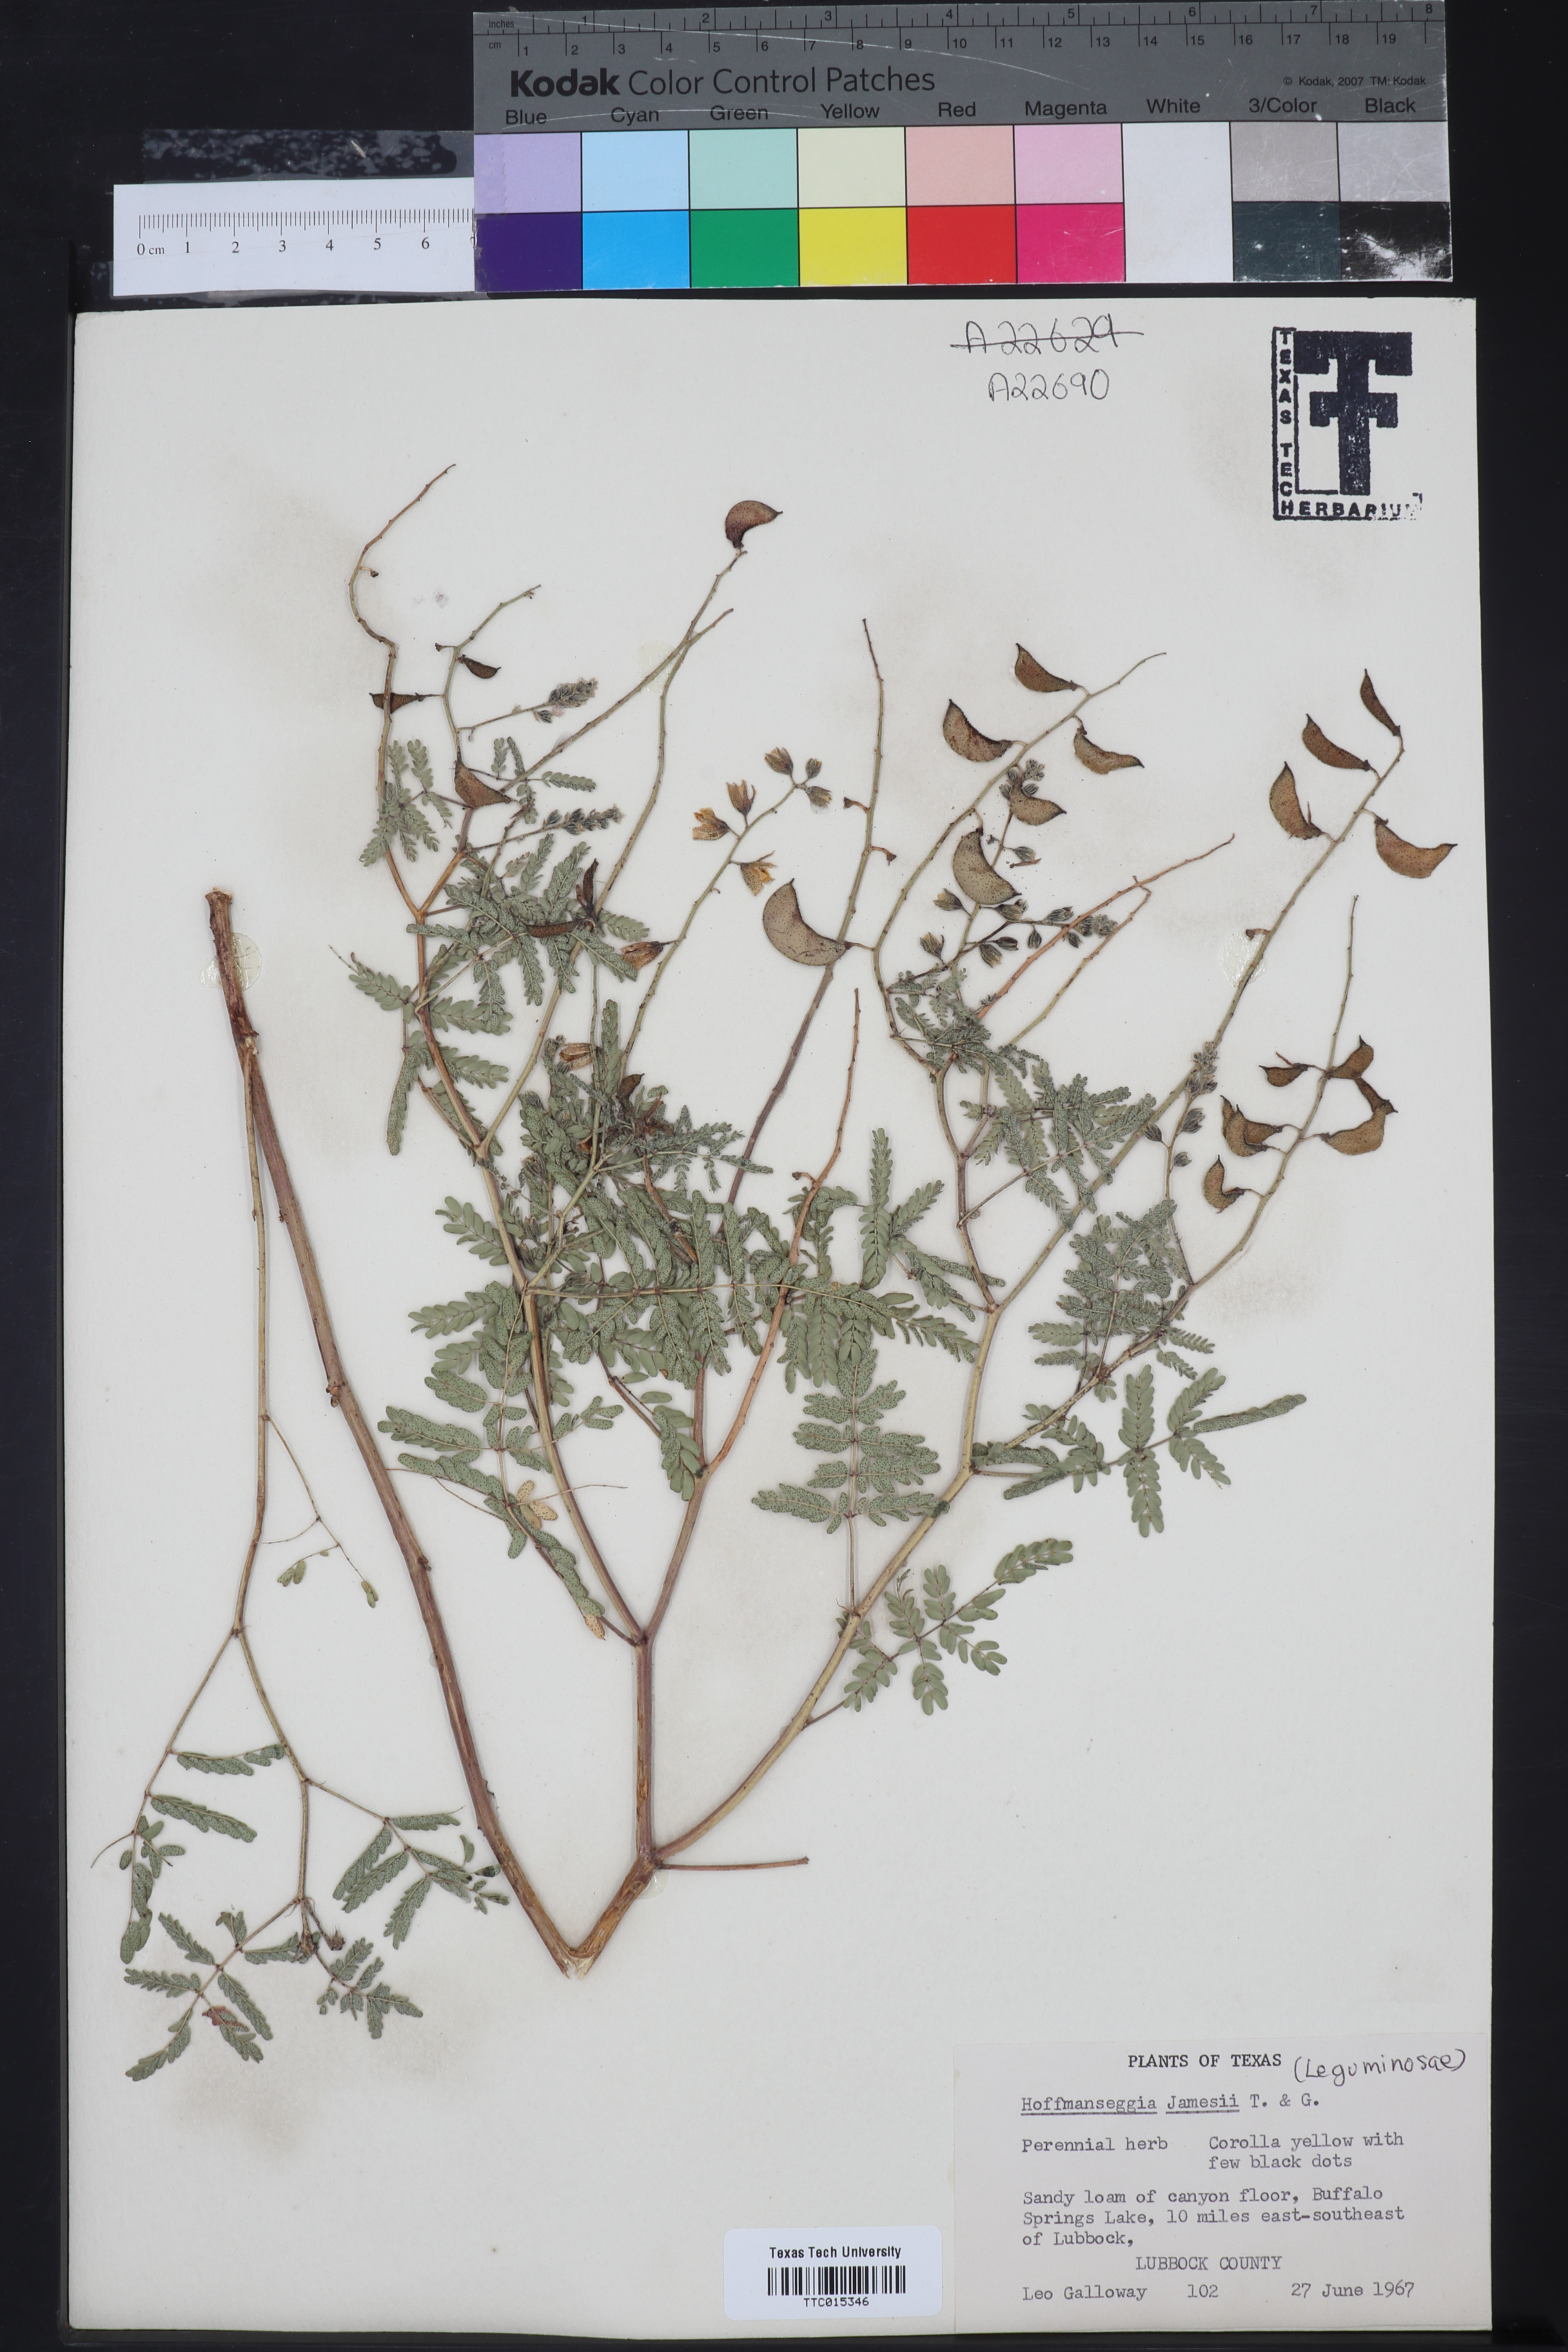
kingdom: Plantae
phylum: Tracheophyta
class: Magnoliopsida
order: Fabales
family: Fabaceae
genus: Pomaria
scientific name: Pomaria jamesii
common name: James' caesalpinia
